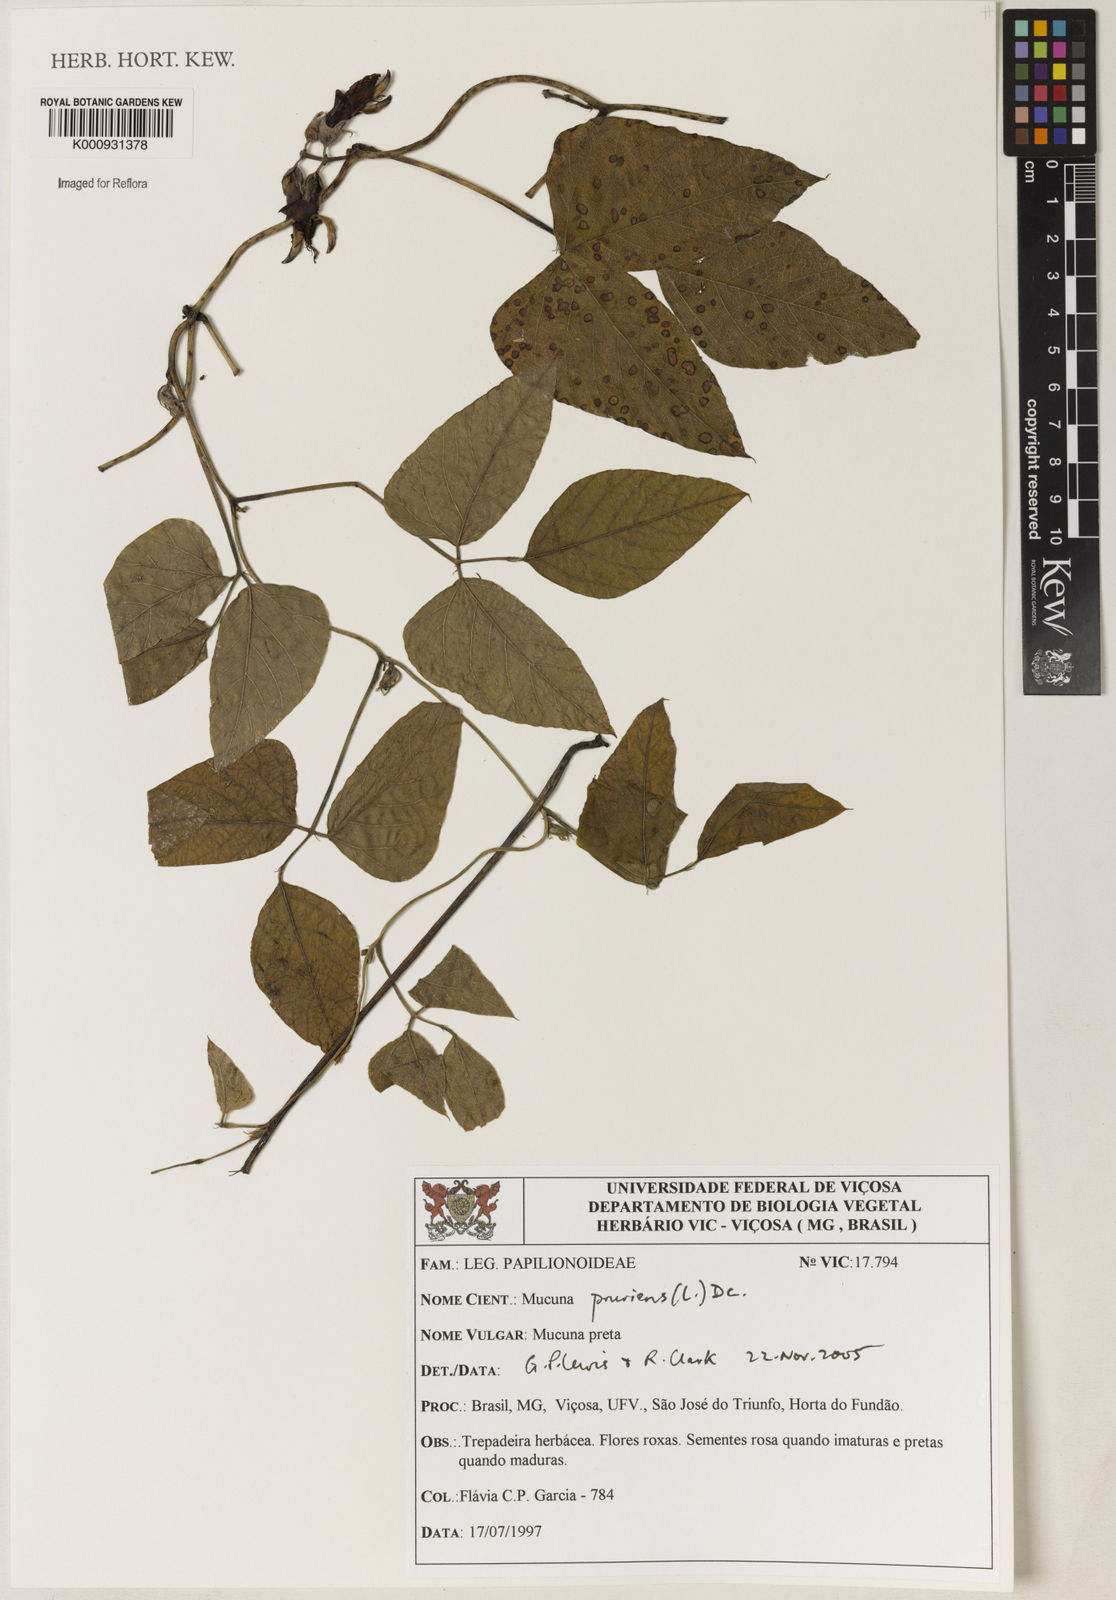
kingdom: Plantae
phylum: Tracheophyta
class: Magnoliopsida
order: Fabales
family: Fabaceae
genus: Mucuna
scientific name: Mucuna pruriens
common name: Cow-itch
